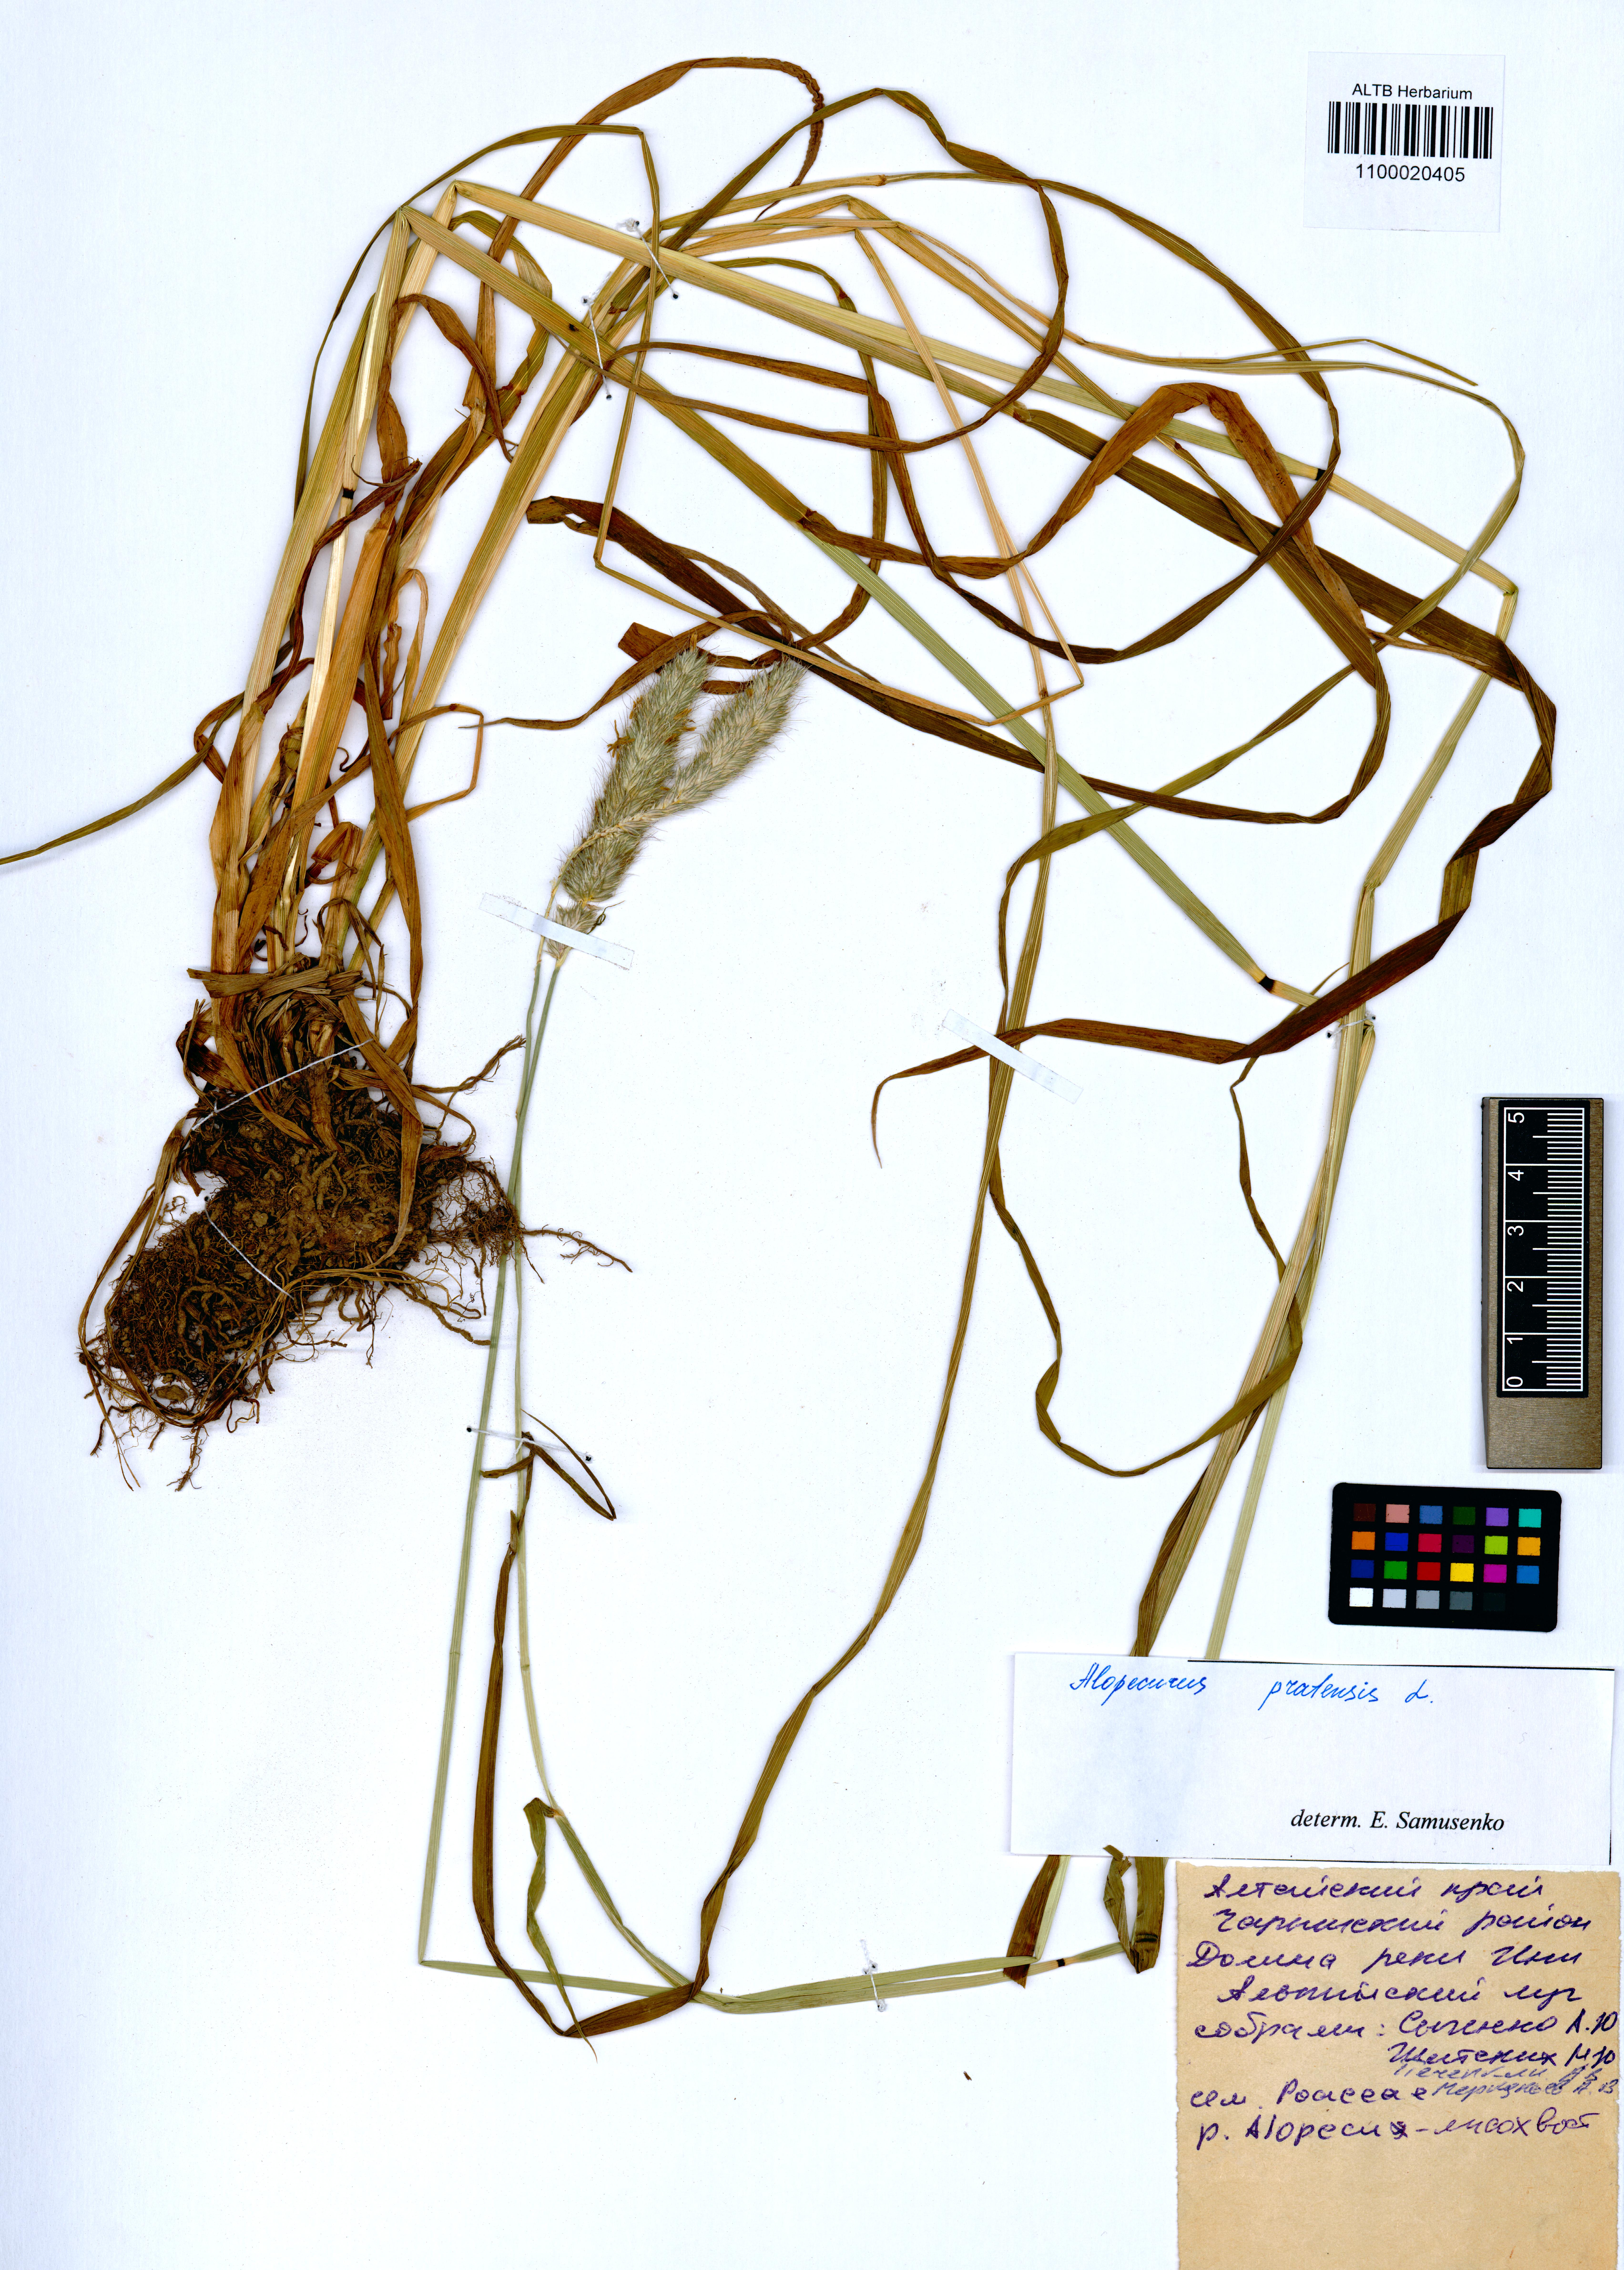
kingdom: Plantae
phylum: Tracheophyta
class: Liliopsida
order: Poales
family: Poaceae
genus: Alopecurus
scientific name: Alopecurus pratensis
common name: Meadow foxtail
